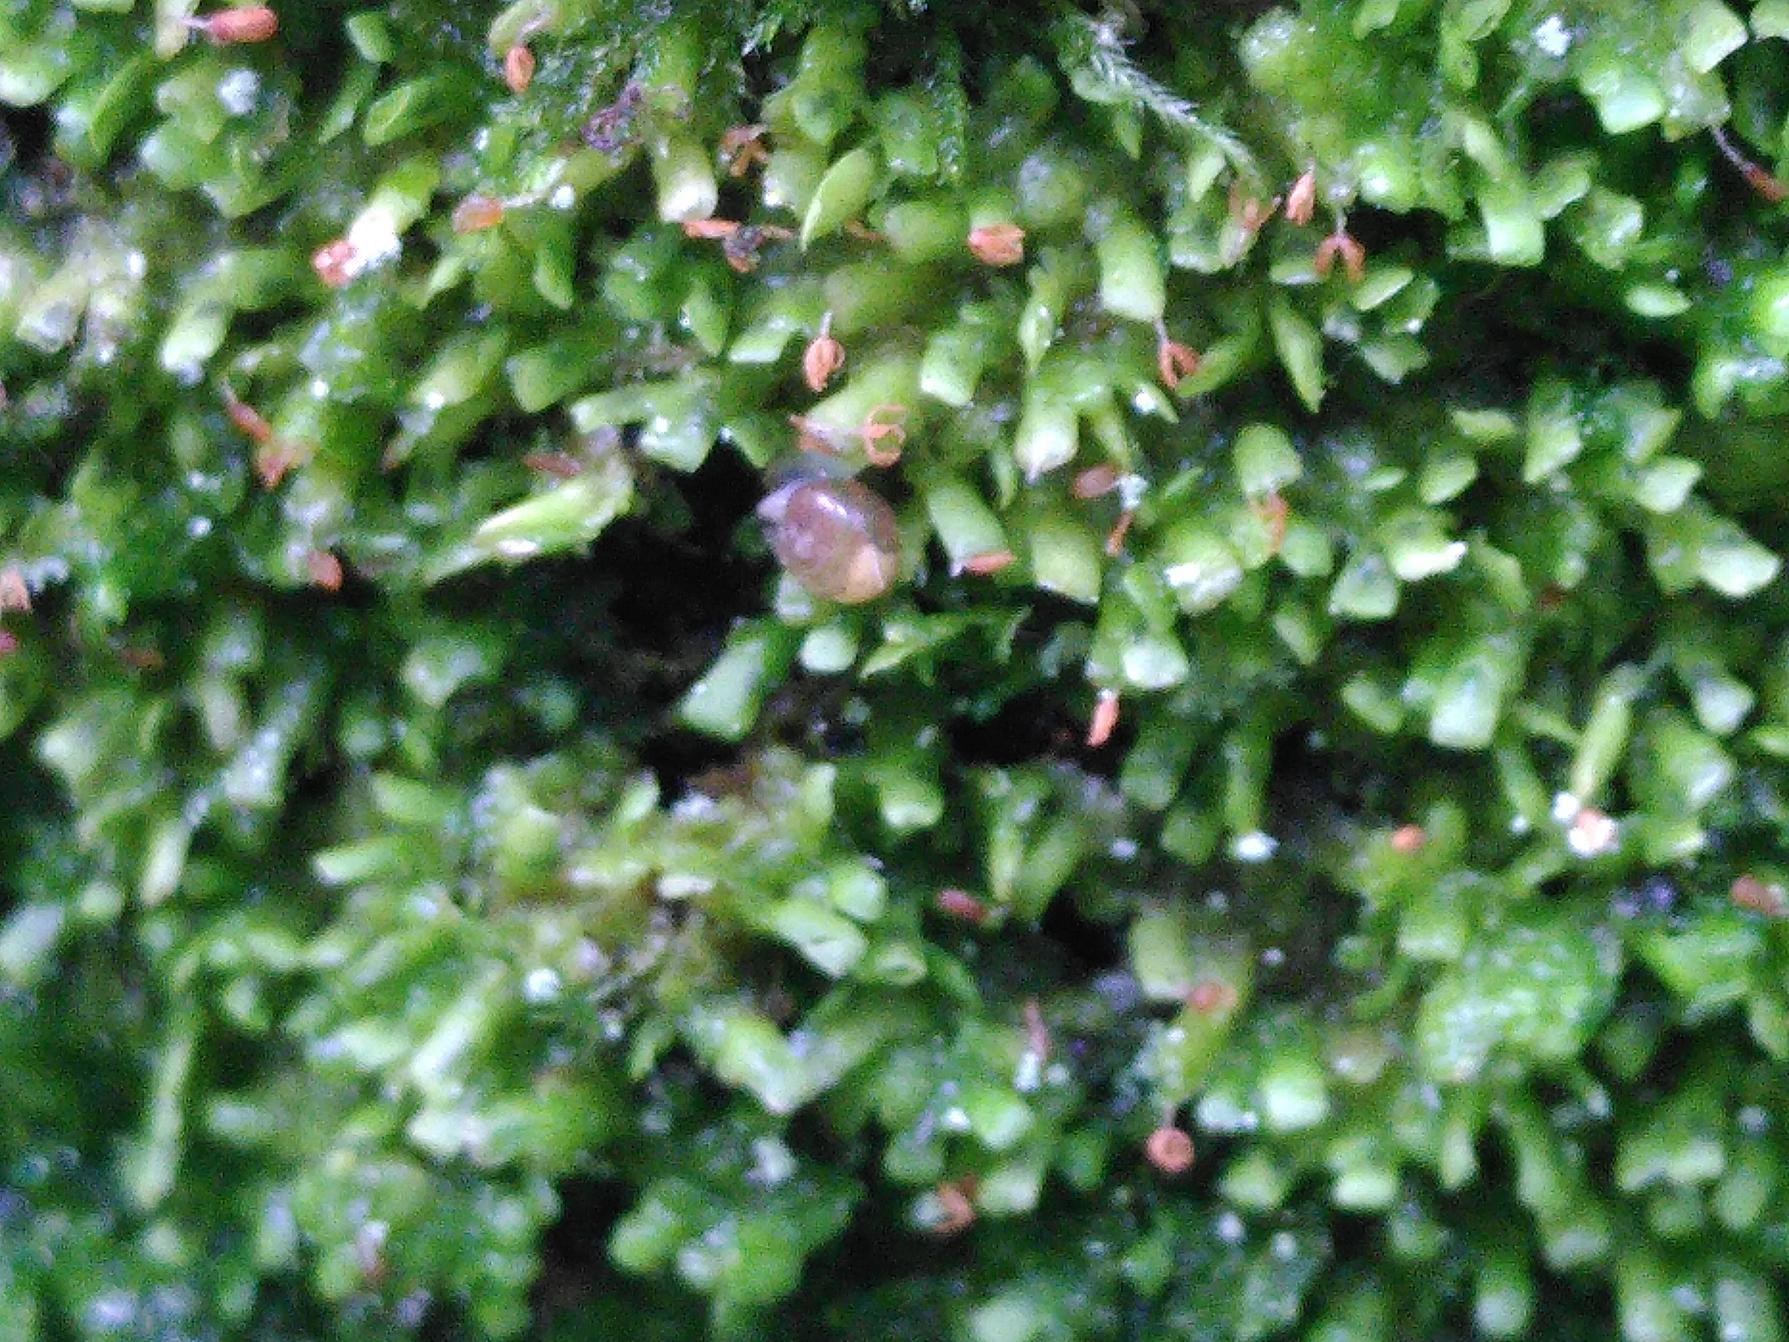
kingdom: Plantae
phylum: Marchantiophyta
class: Jungermanniopsida
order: Porellales
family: Radulaceae
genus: Radula
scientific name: Radula complanata
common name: Almindelig spartelmos
